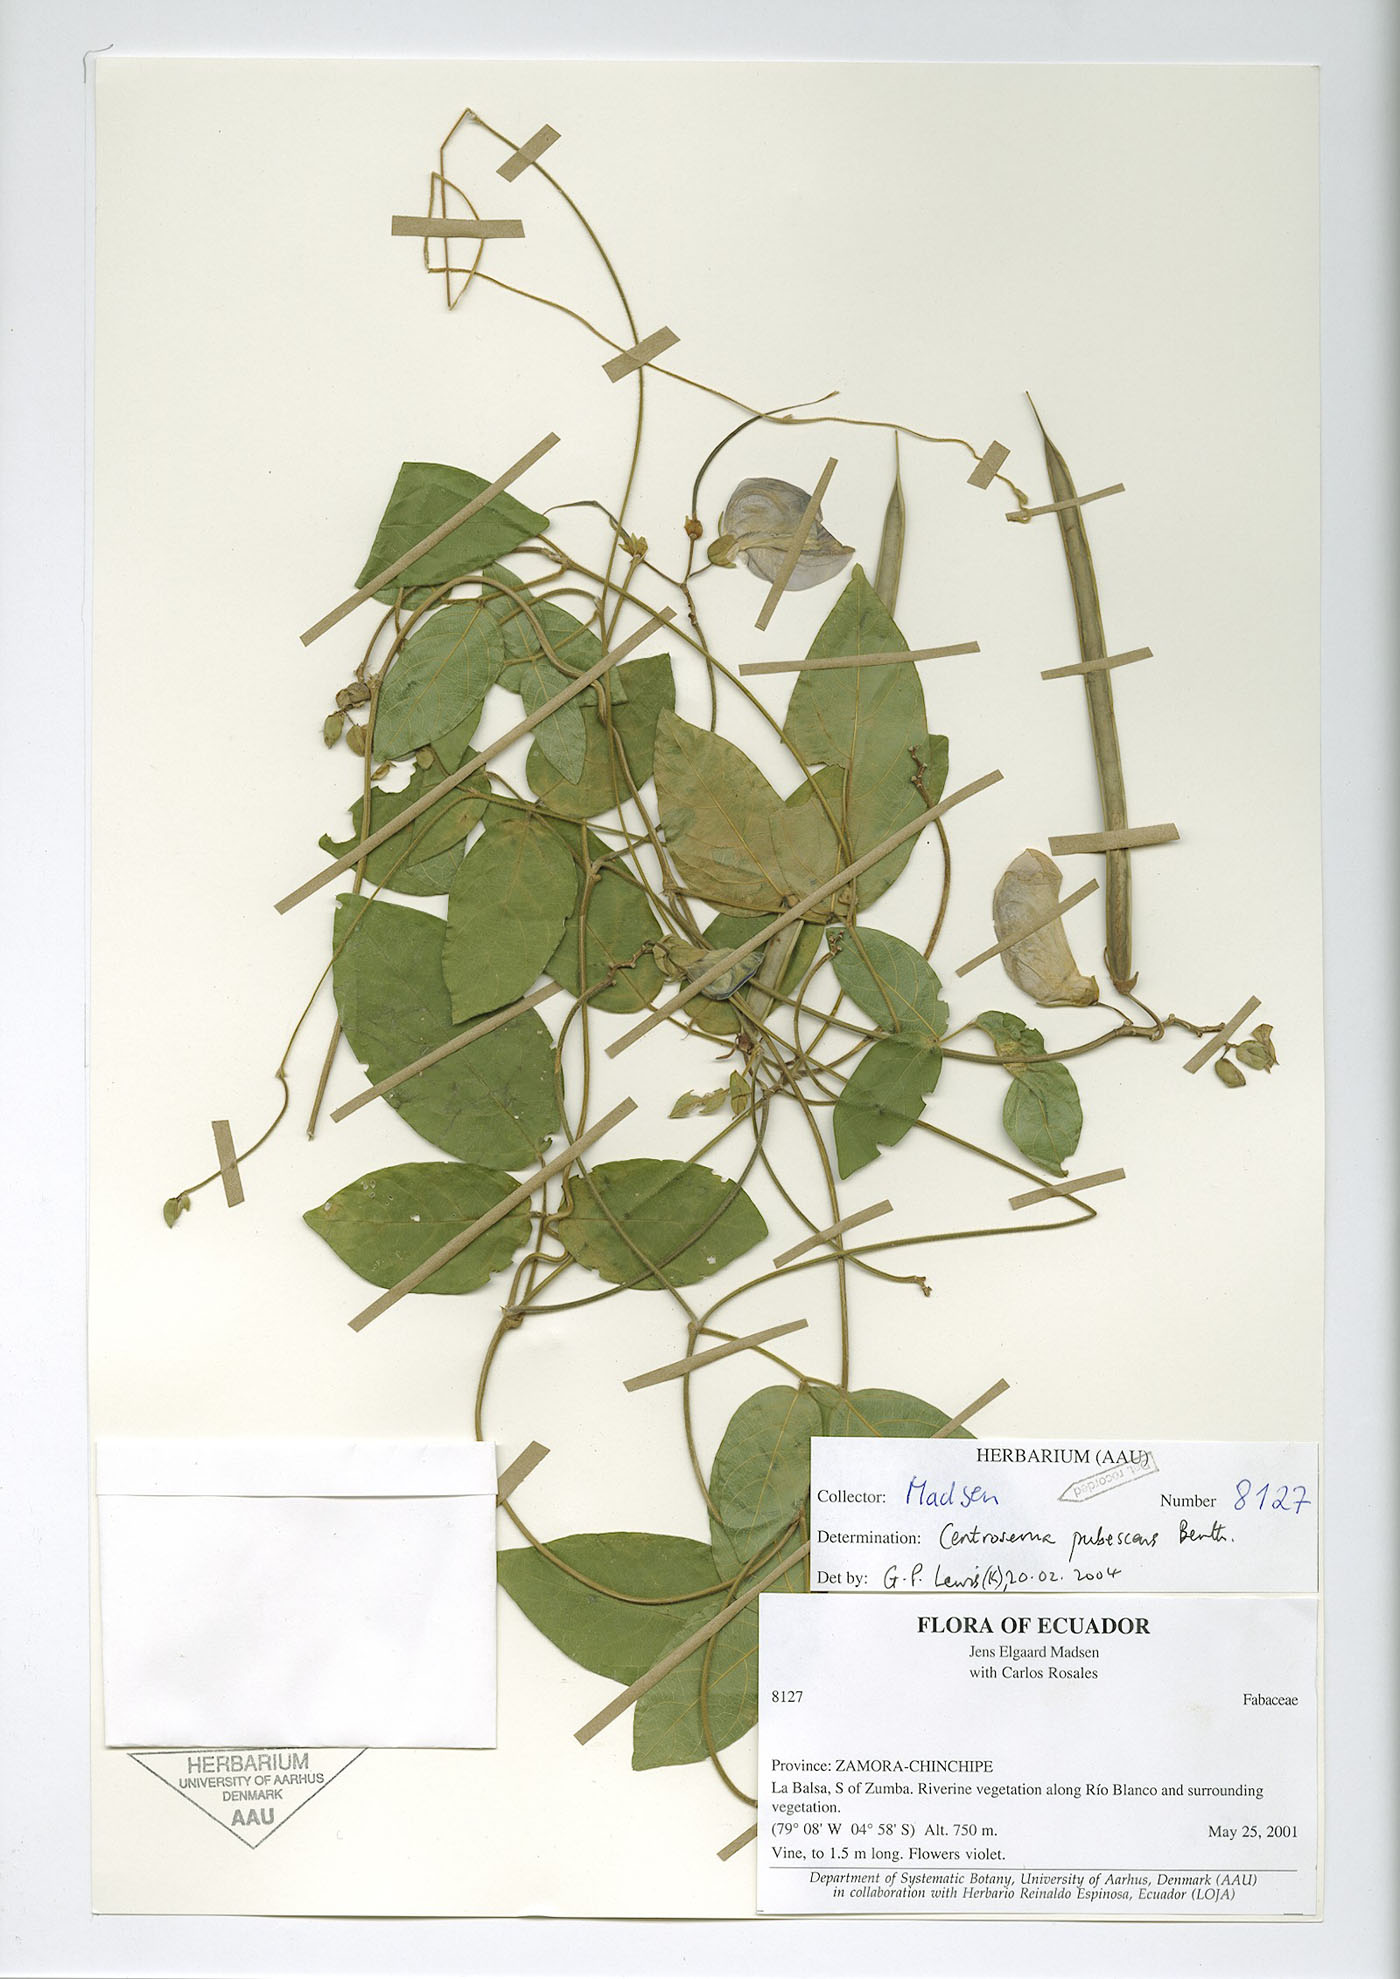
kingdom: Plantae
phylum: Tracheophyta
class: Magnoliopsida
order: Fabales
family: Fabaceae
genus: Centrosema
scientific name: Centrosema molle
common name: Soft butterfly pea
